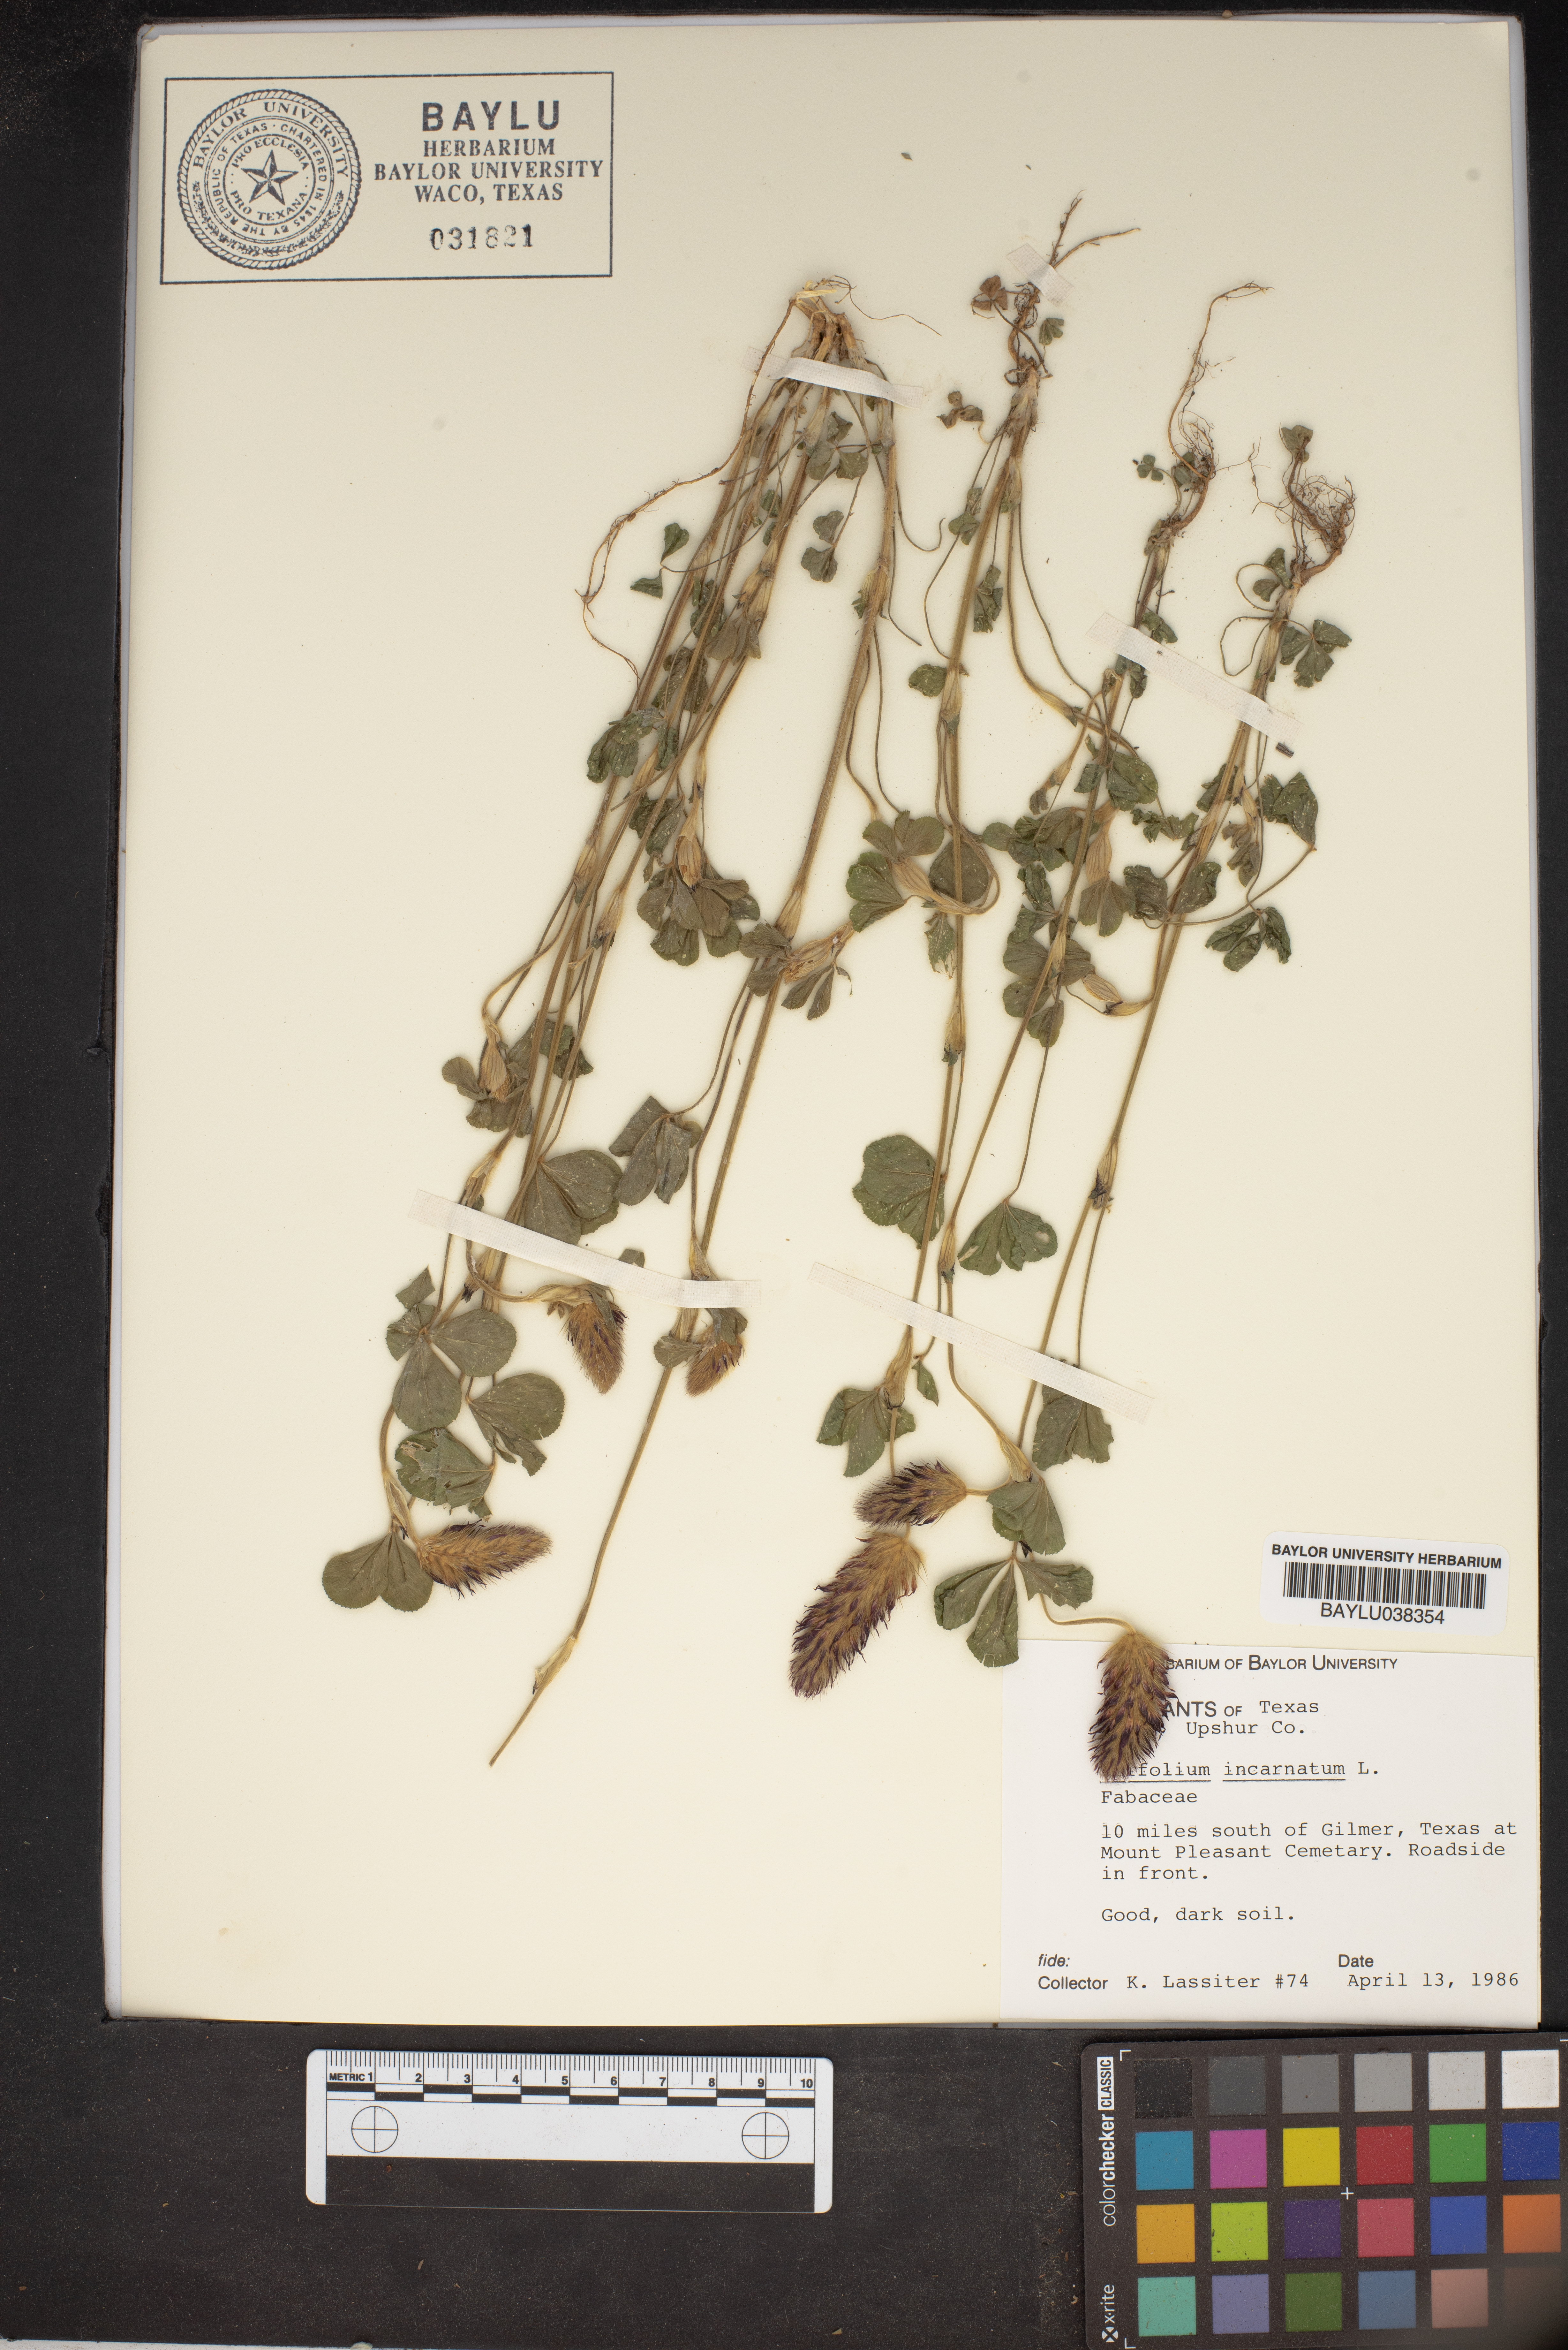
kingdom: Plantae
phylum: Tracheophyta
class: Magnoliopsida
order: Fabales
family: Fabaceae
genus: Trifolium
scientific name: Trifolium incarnatum
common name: Crimson clover
